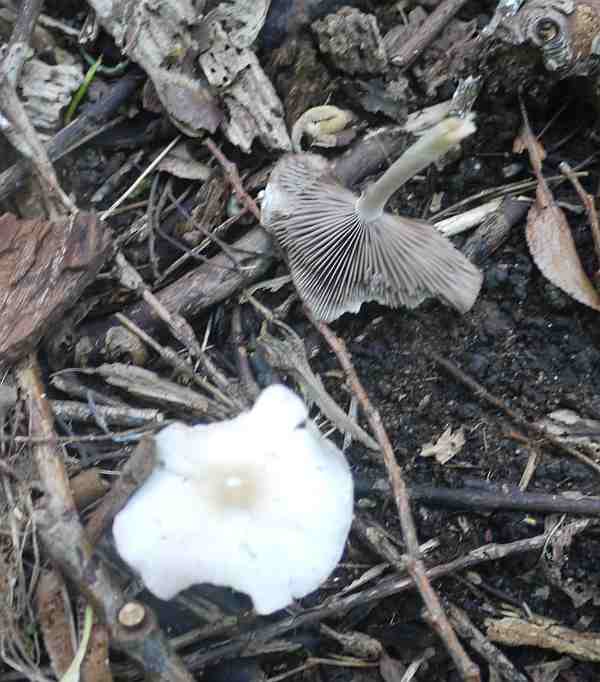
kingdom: Fungi
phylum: Basidiomycota
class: Agaricomycetes
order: Agaricales
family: Psathyrellaceae
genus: Candolleomyces
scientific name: Candolleomyces candolleanus
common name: Candolles mørkhat
